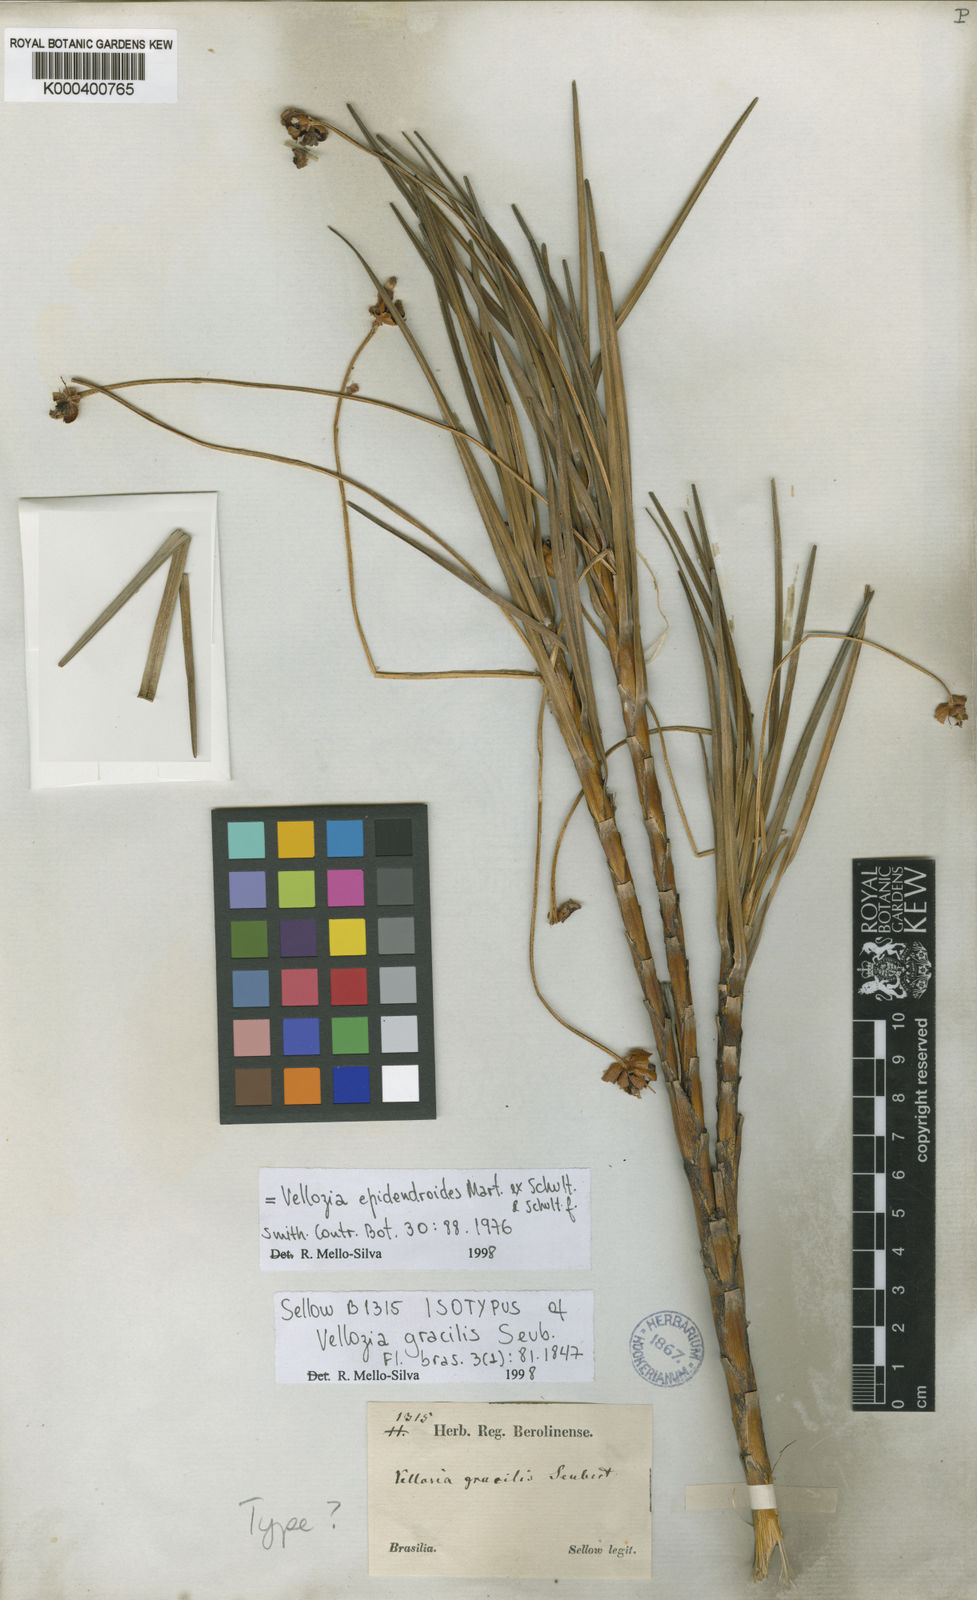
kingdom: Plantae
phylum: Tracheophyta
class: Liliopsida
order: Pandanales
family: Velloziaceae
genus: Vellozia
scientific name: Vellozia epidendroides
